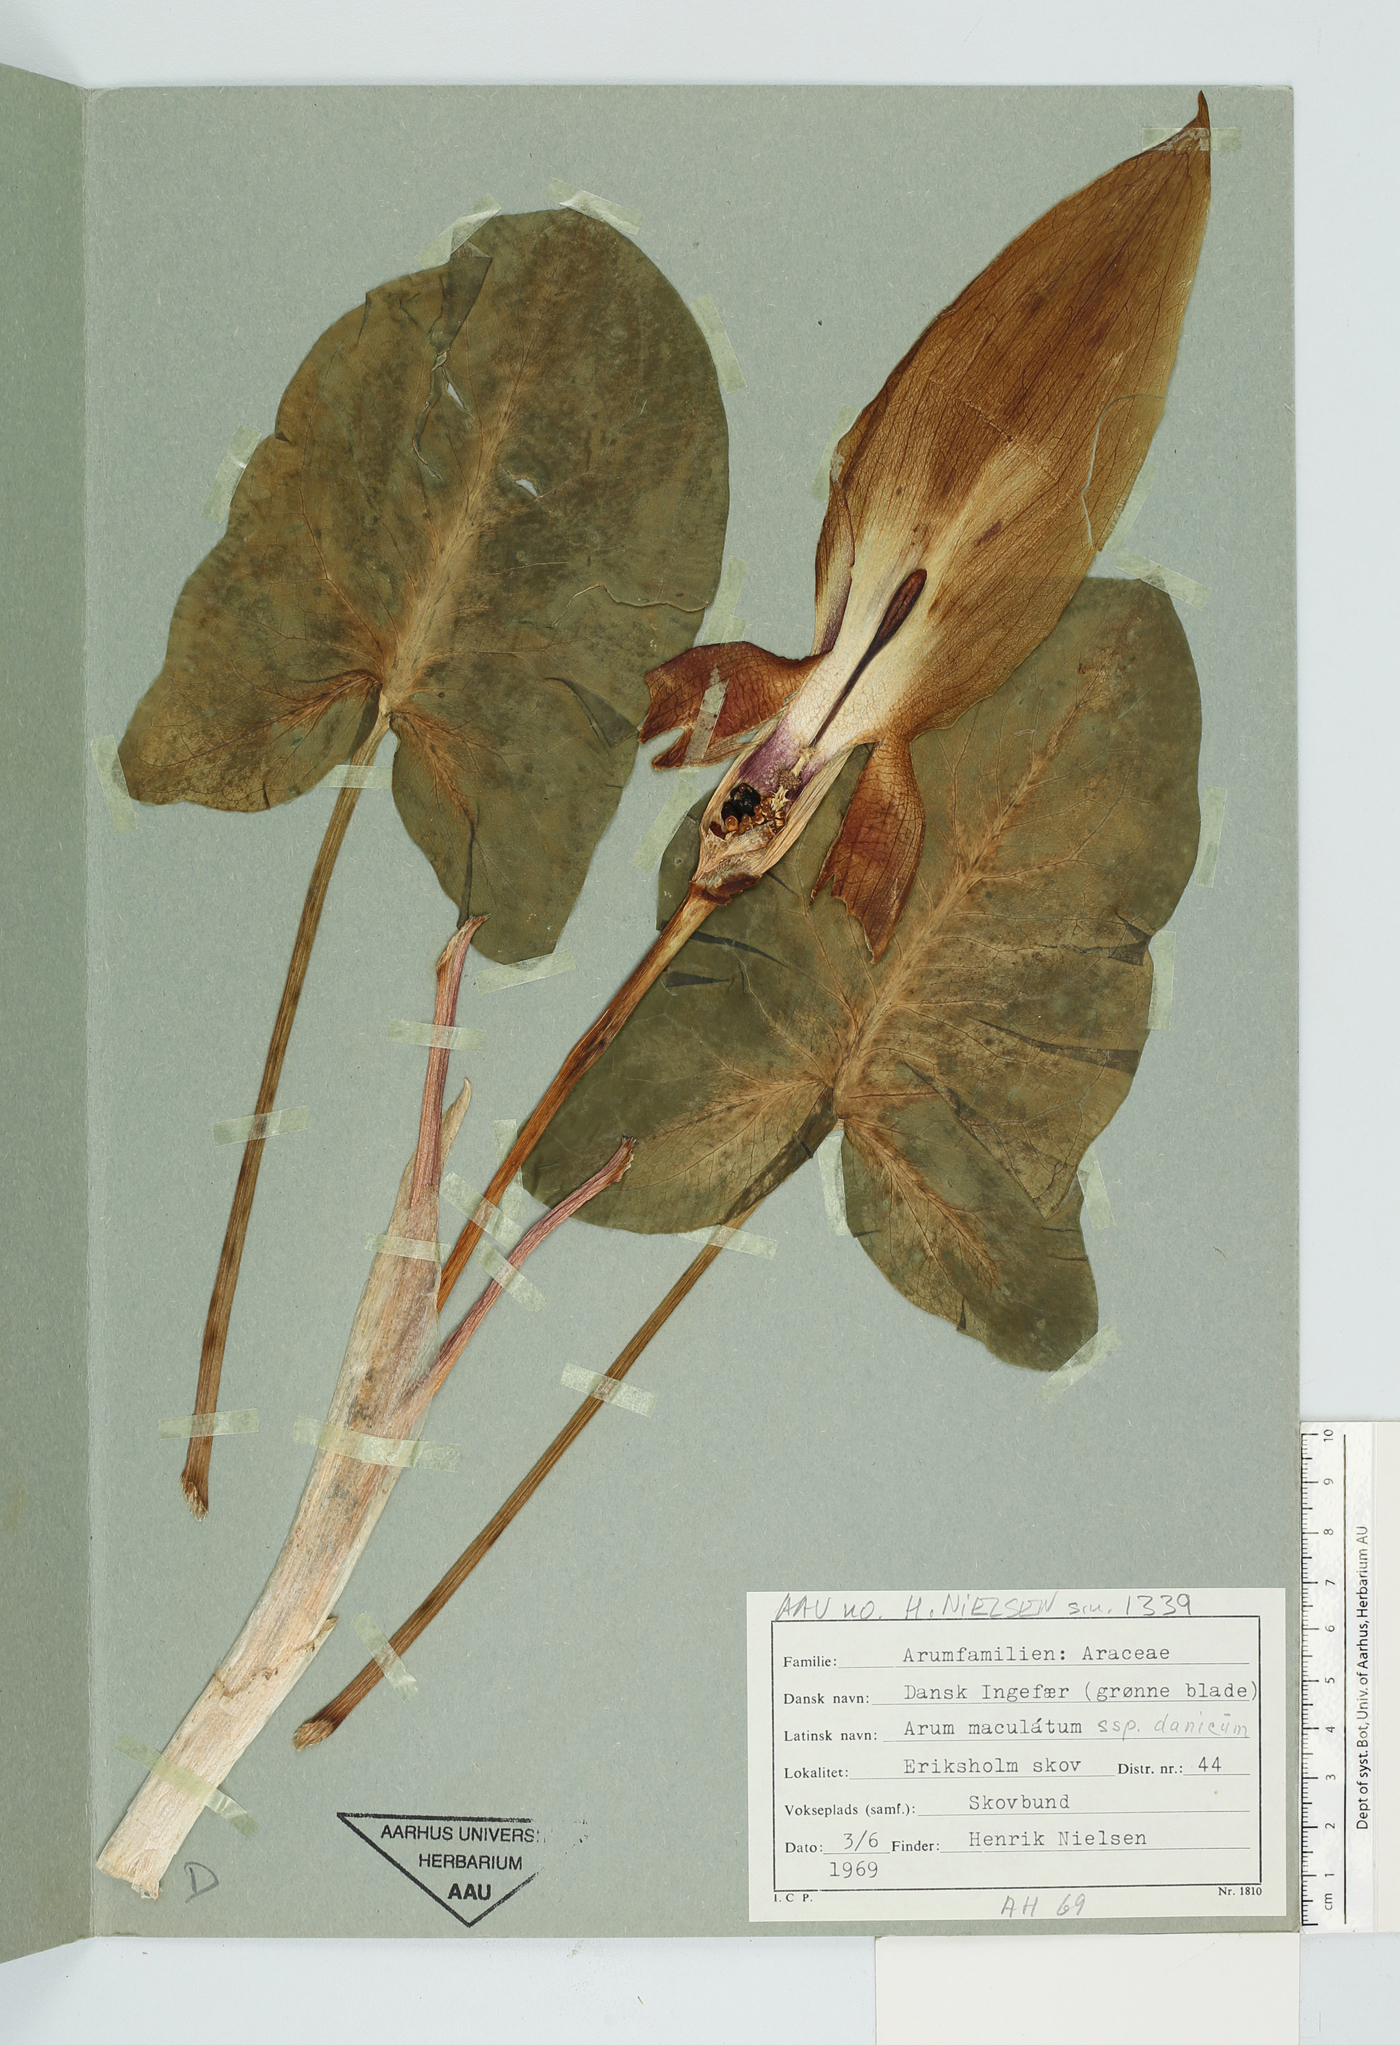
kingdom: Plantae
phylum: Tracheophyta
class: Liliopsida
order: Alismatales
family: Araceae
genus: Arum
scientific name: Arum cylindraceum
